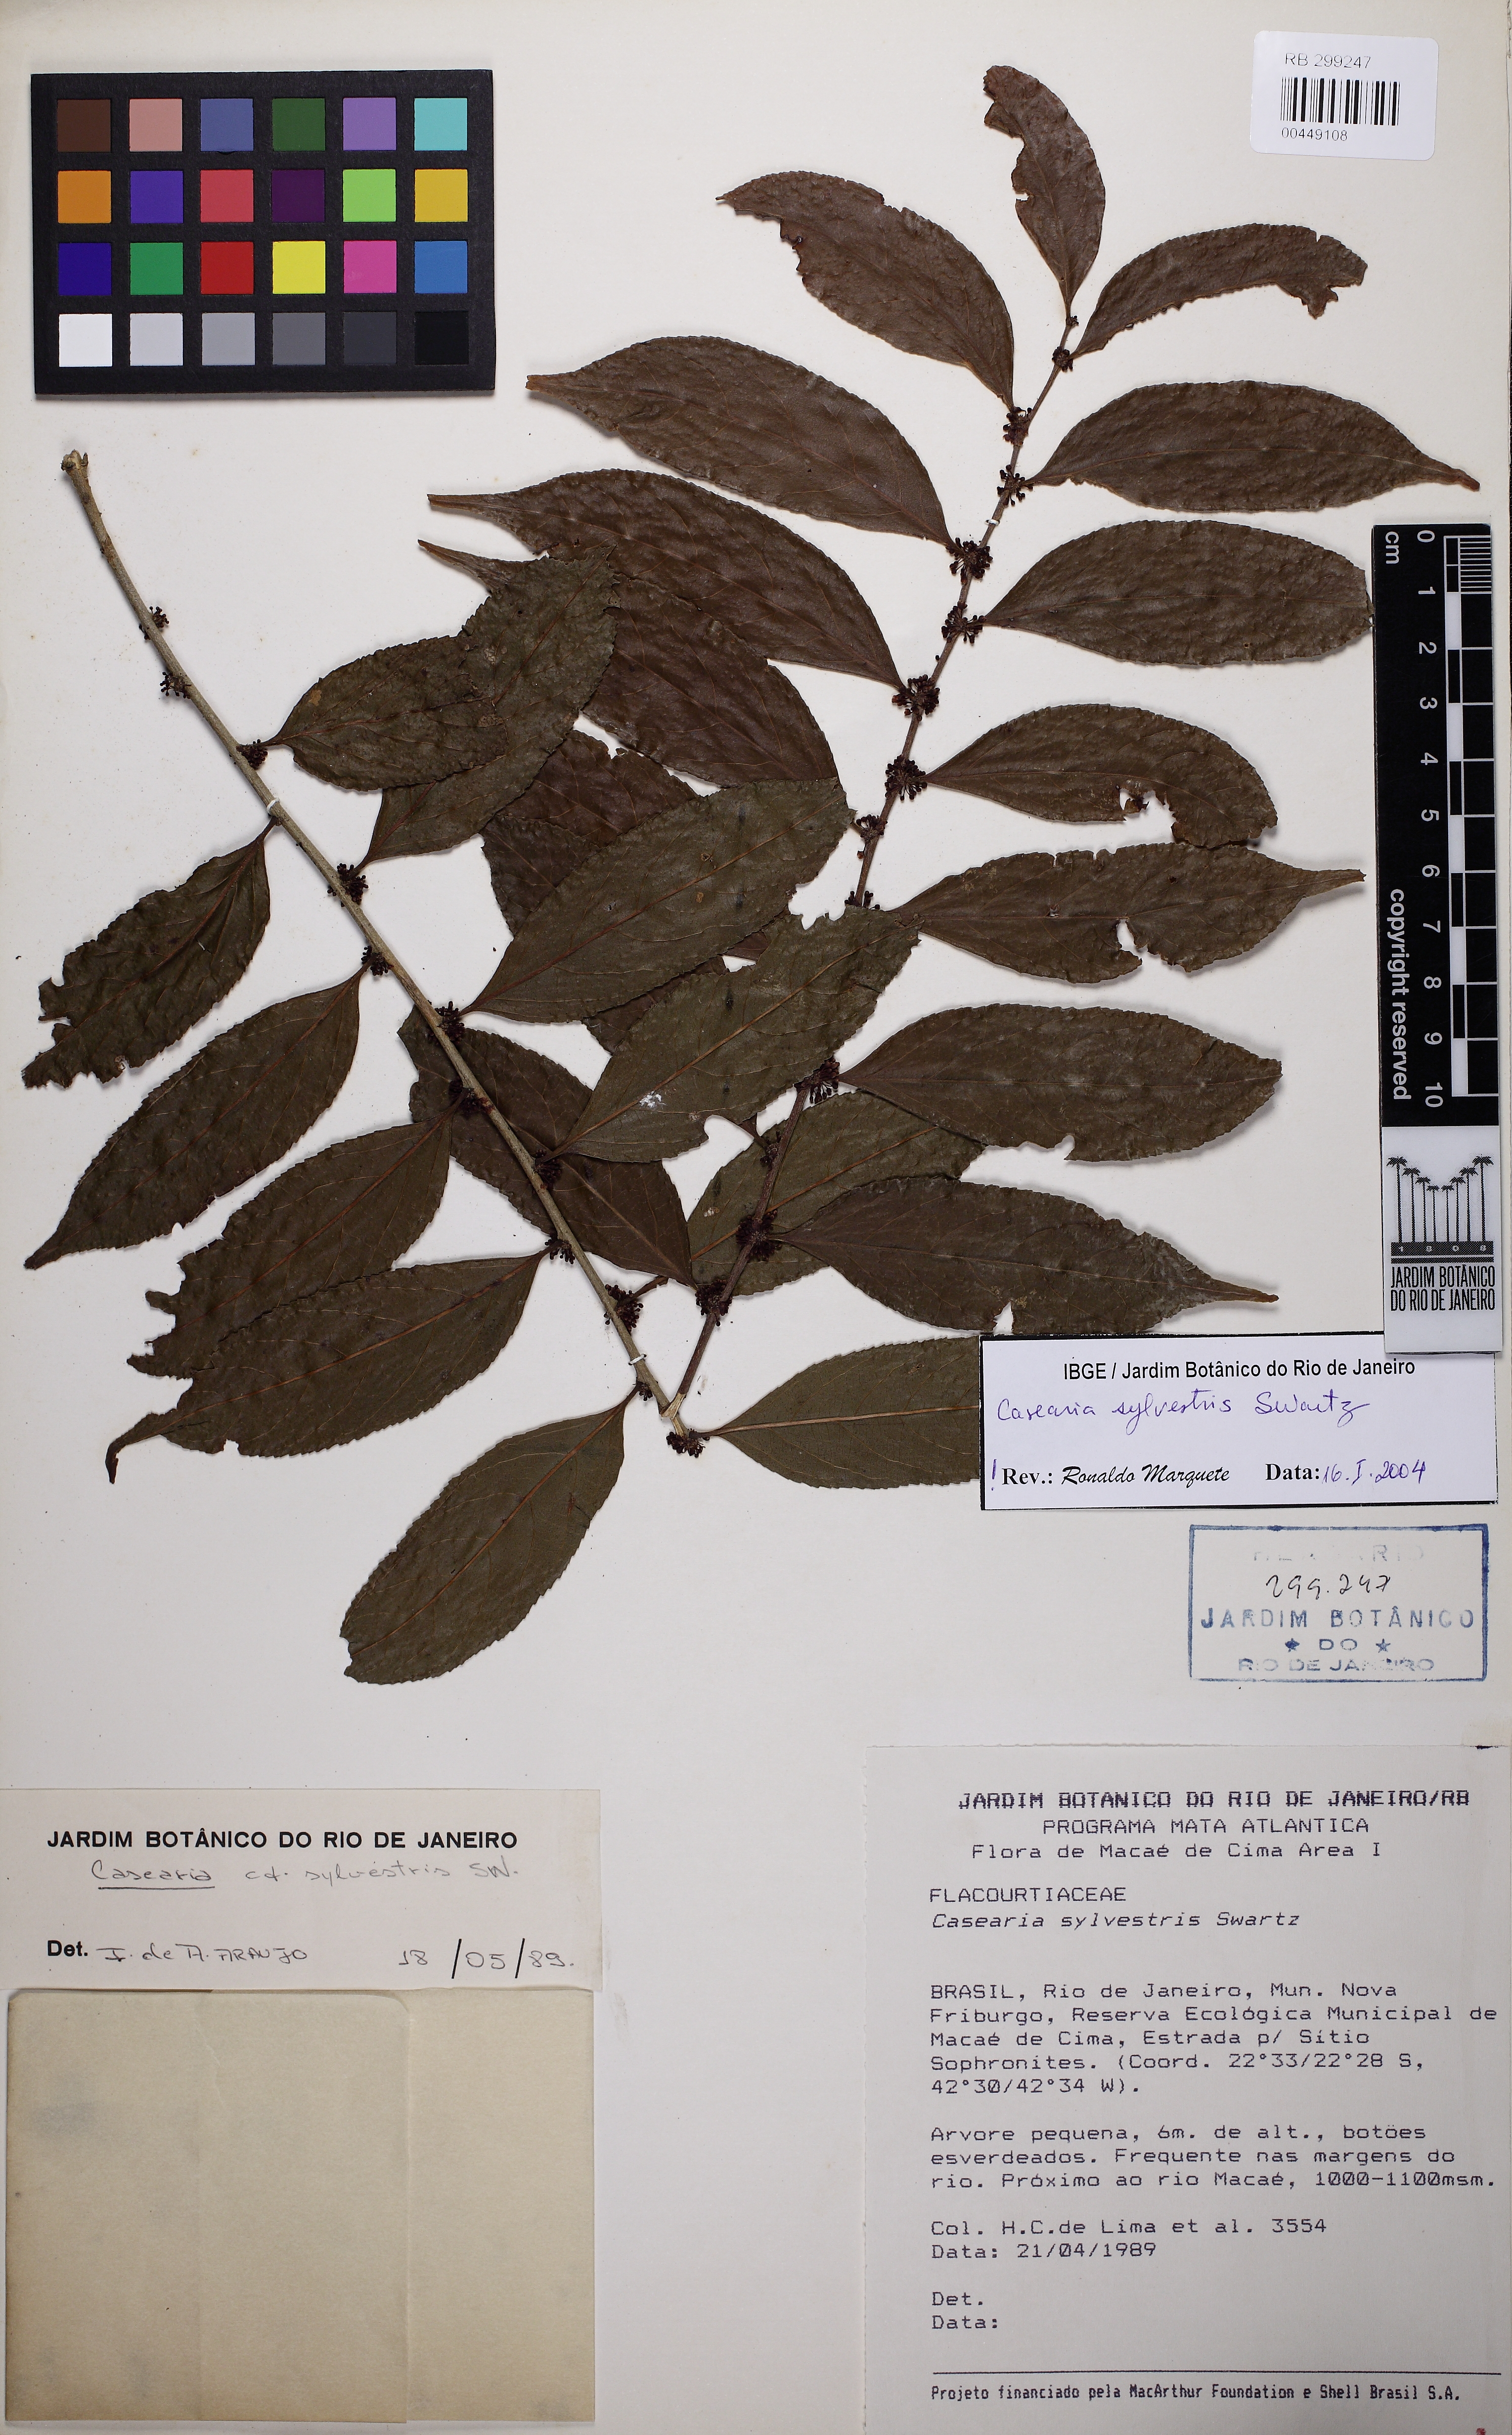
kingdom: Plantae
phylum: Tracheophyta
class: Magnoliopsida
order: Malpighiales
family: Salicaceae
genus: Casearia
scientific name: Casearia sylvestris
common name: Wild sage
